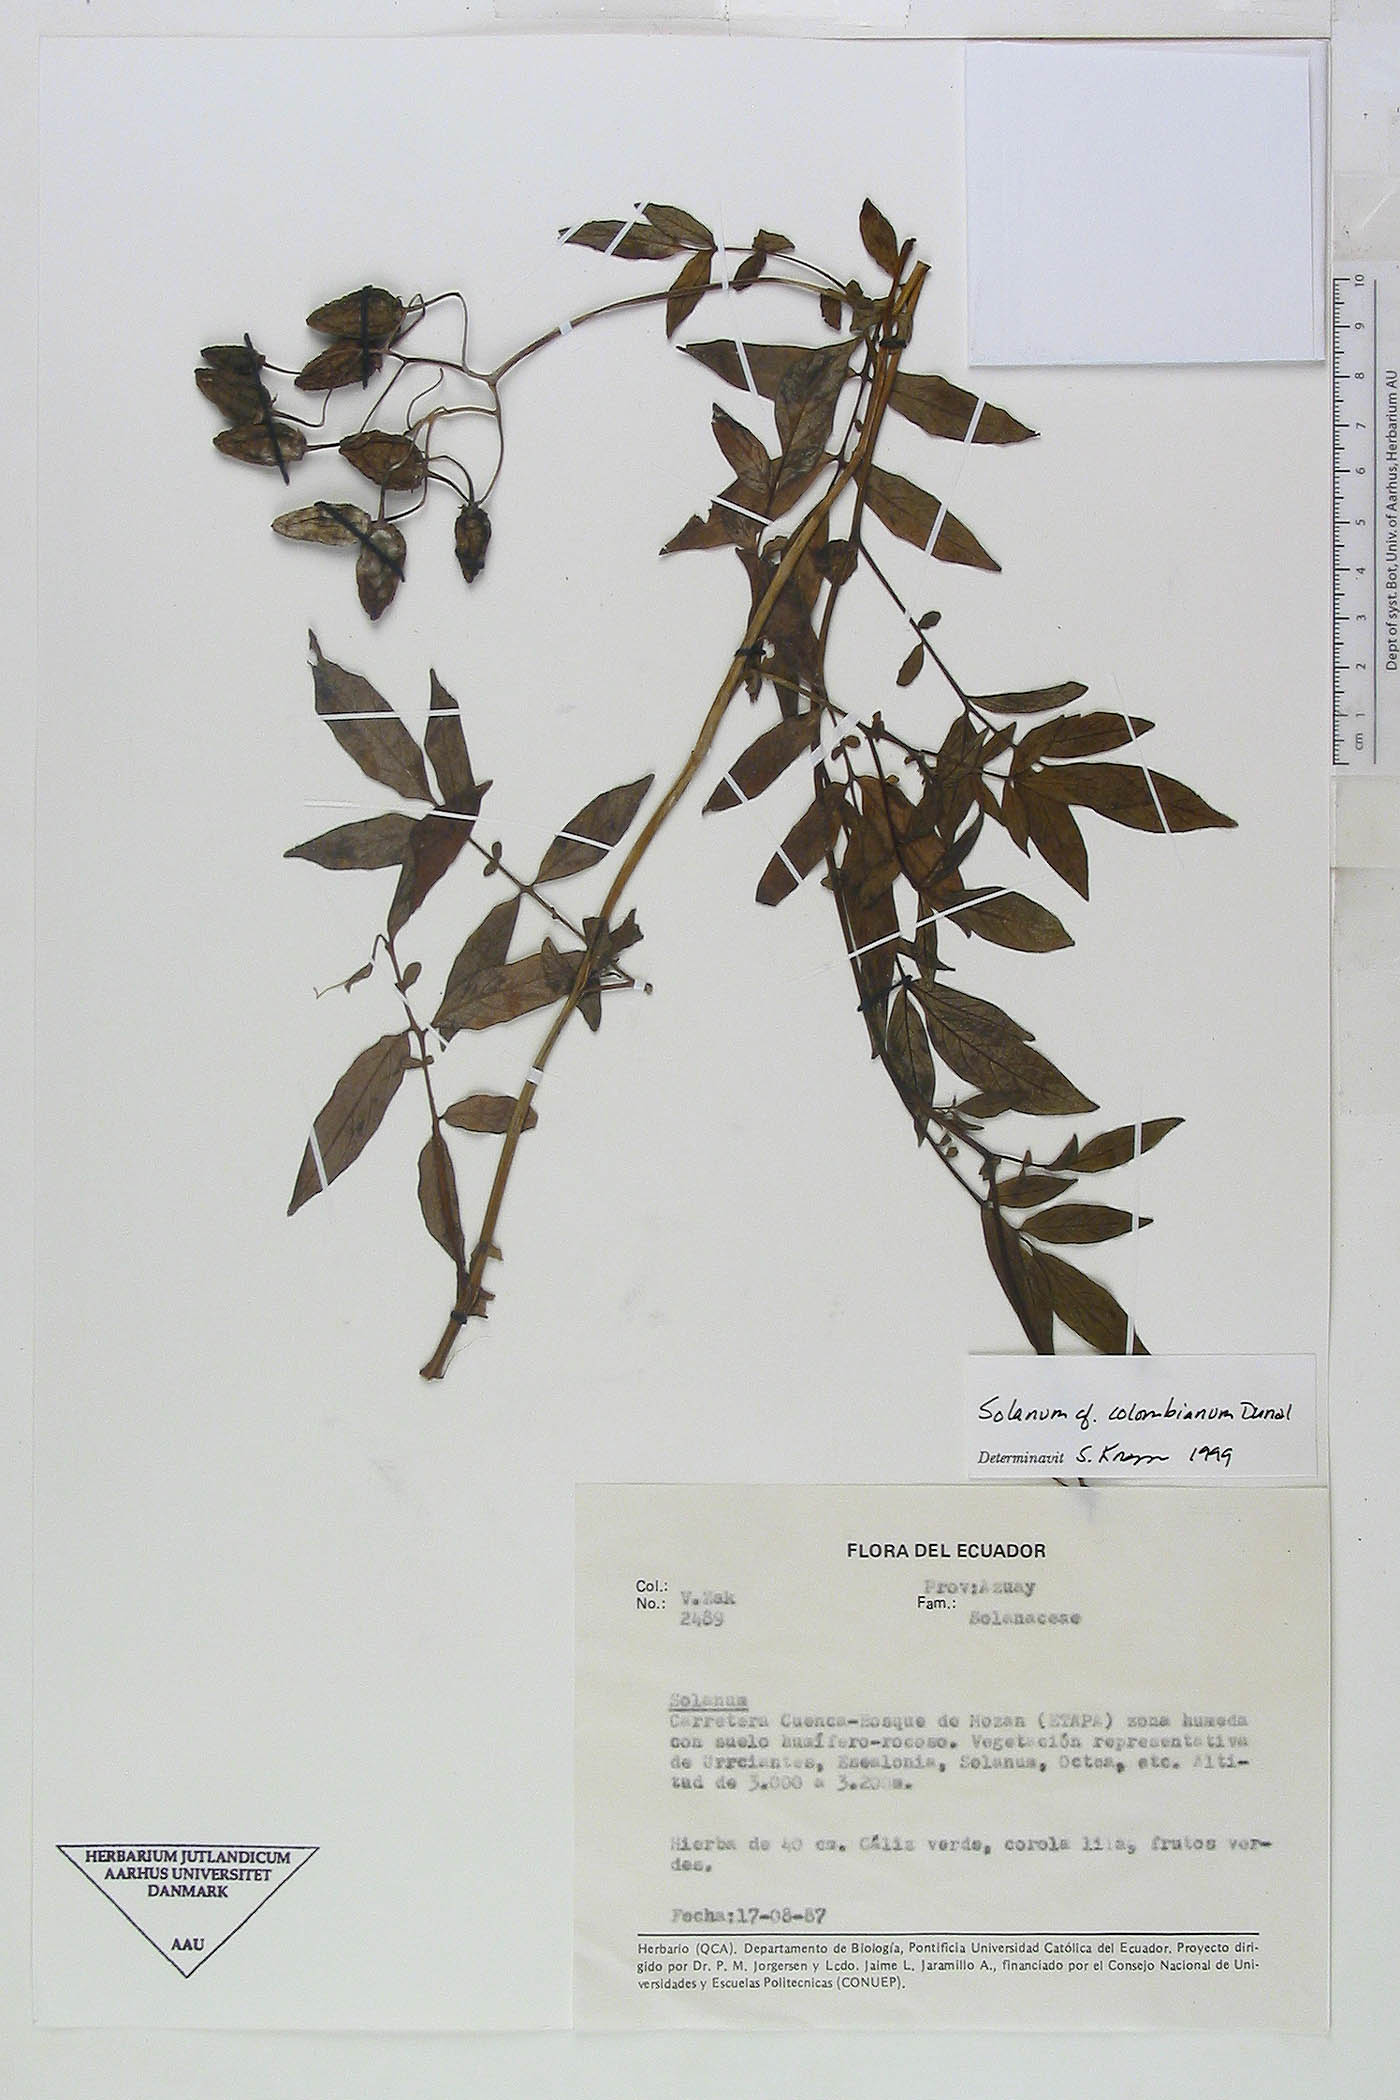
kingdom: Plantae
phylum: Tracheophyta
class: Magnoliopsida
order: Solanales
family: Solanaceae
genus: Solanum
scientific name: Solanum colombianum
